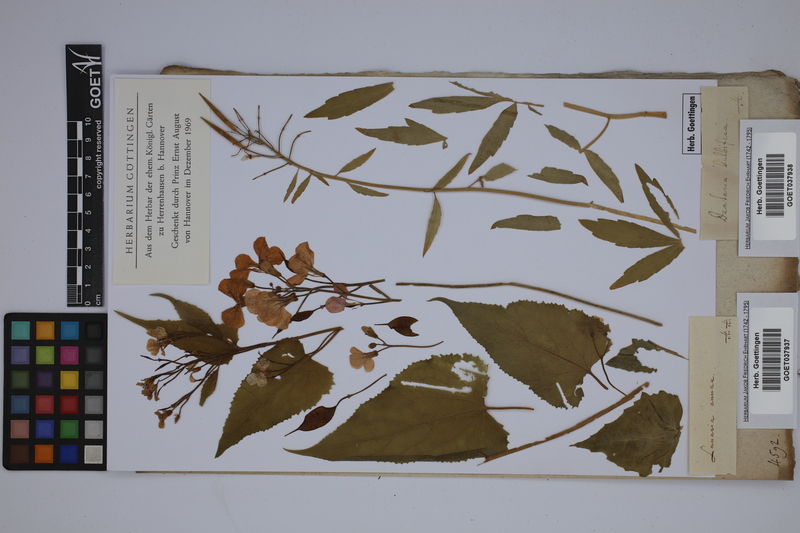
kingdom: Plantae
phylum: Tracheophyta
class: Magnoliopsida
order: Brassicales
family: Brassicaceae
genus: Cardamine
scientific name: Cardamine bulbifera
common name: Coralroot bittercress
